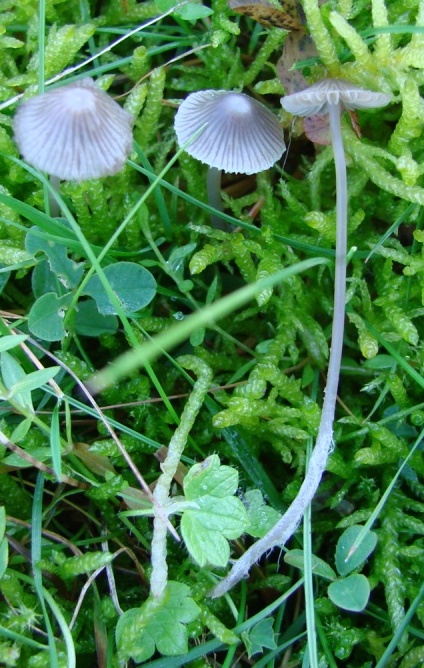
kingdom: Fungi
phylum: Basidiomycota
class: Agaricomycetes
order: Agaricales
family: Mycenaceae
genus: Mycena
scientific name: Mycena aetites
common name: plæne-huesvamp
